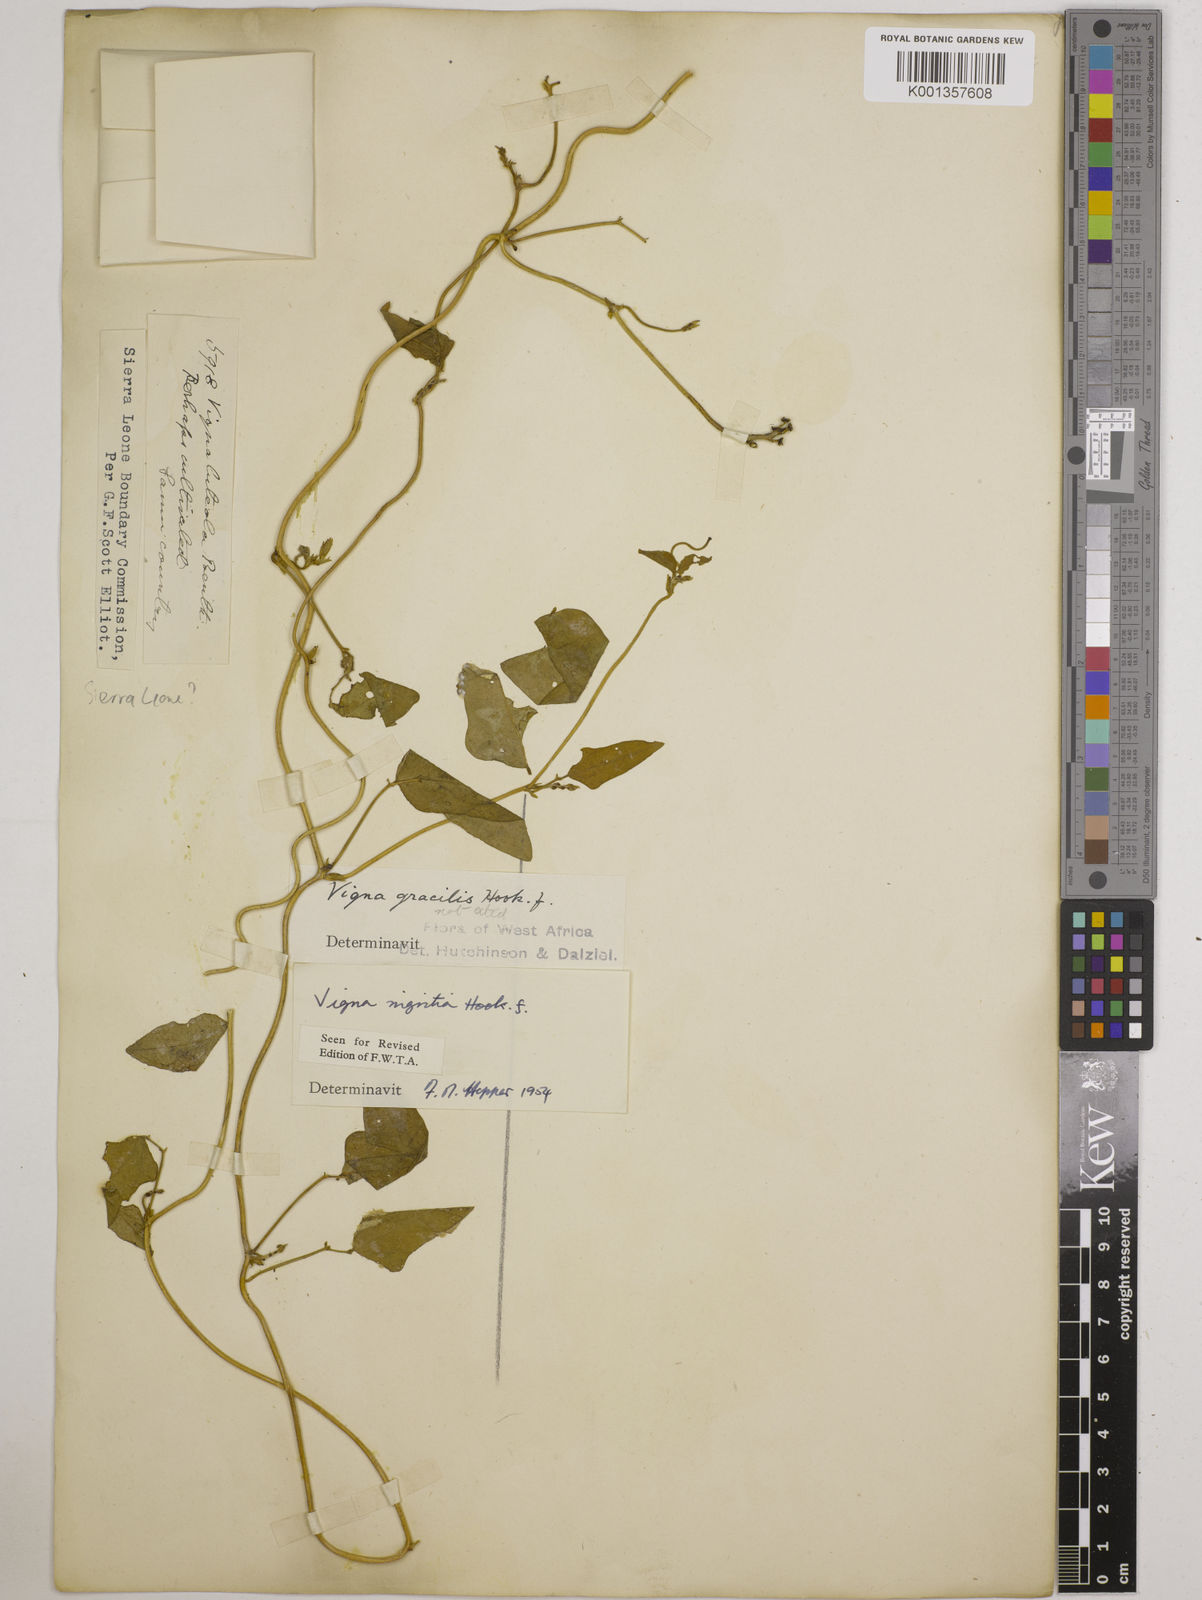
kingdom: Plantae
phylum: Tracheophyta
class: Magnoliopsida
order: Fabales
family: Fabaceae
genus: Vigna
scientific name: Vigna nigritia
